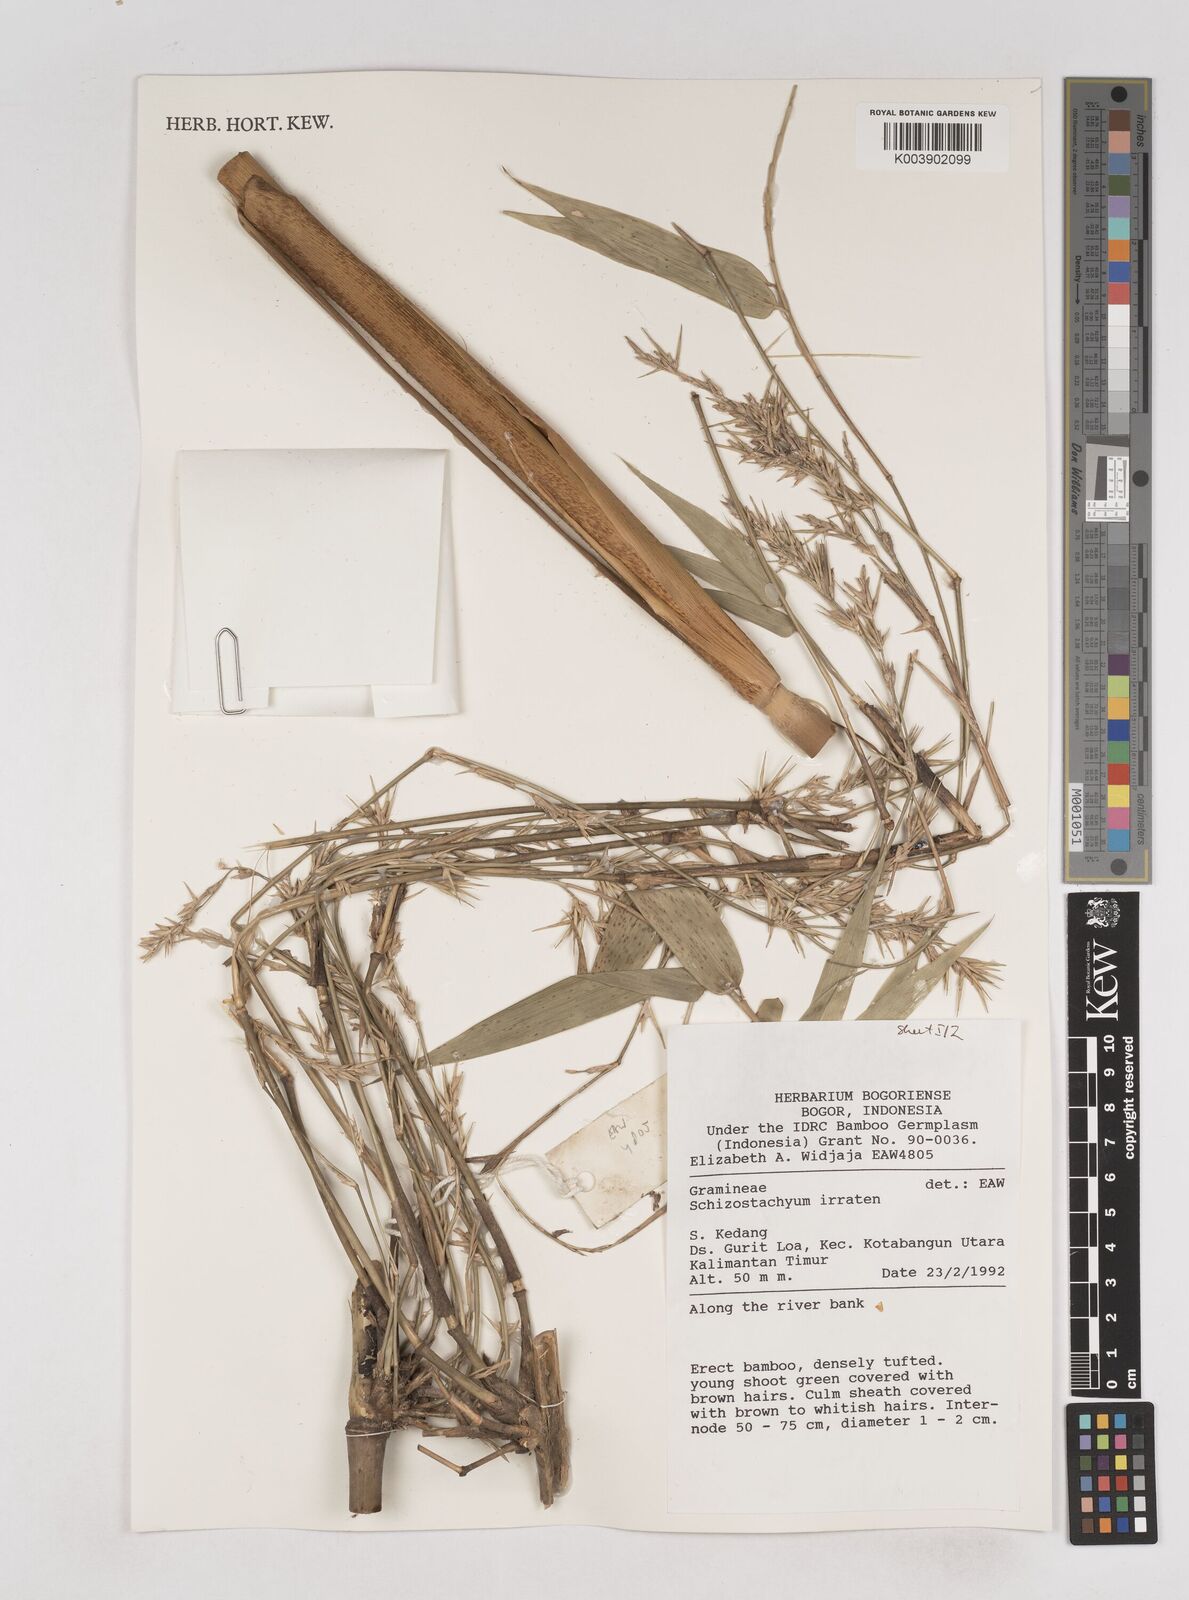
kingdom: Plantae
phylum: Tracheophyta
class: Liliopsida
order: Poales
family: Poaceae
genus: Schizostachyum
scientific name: Schizostachyum iraten
